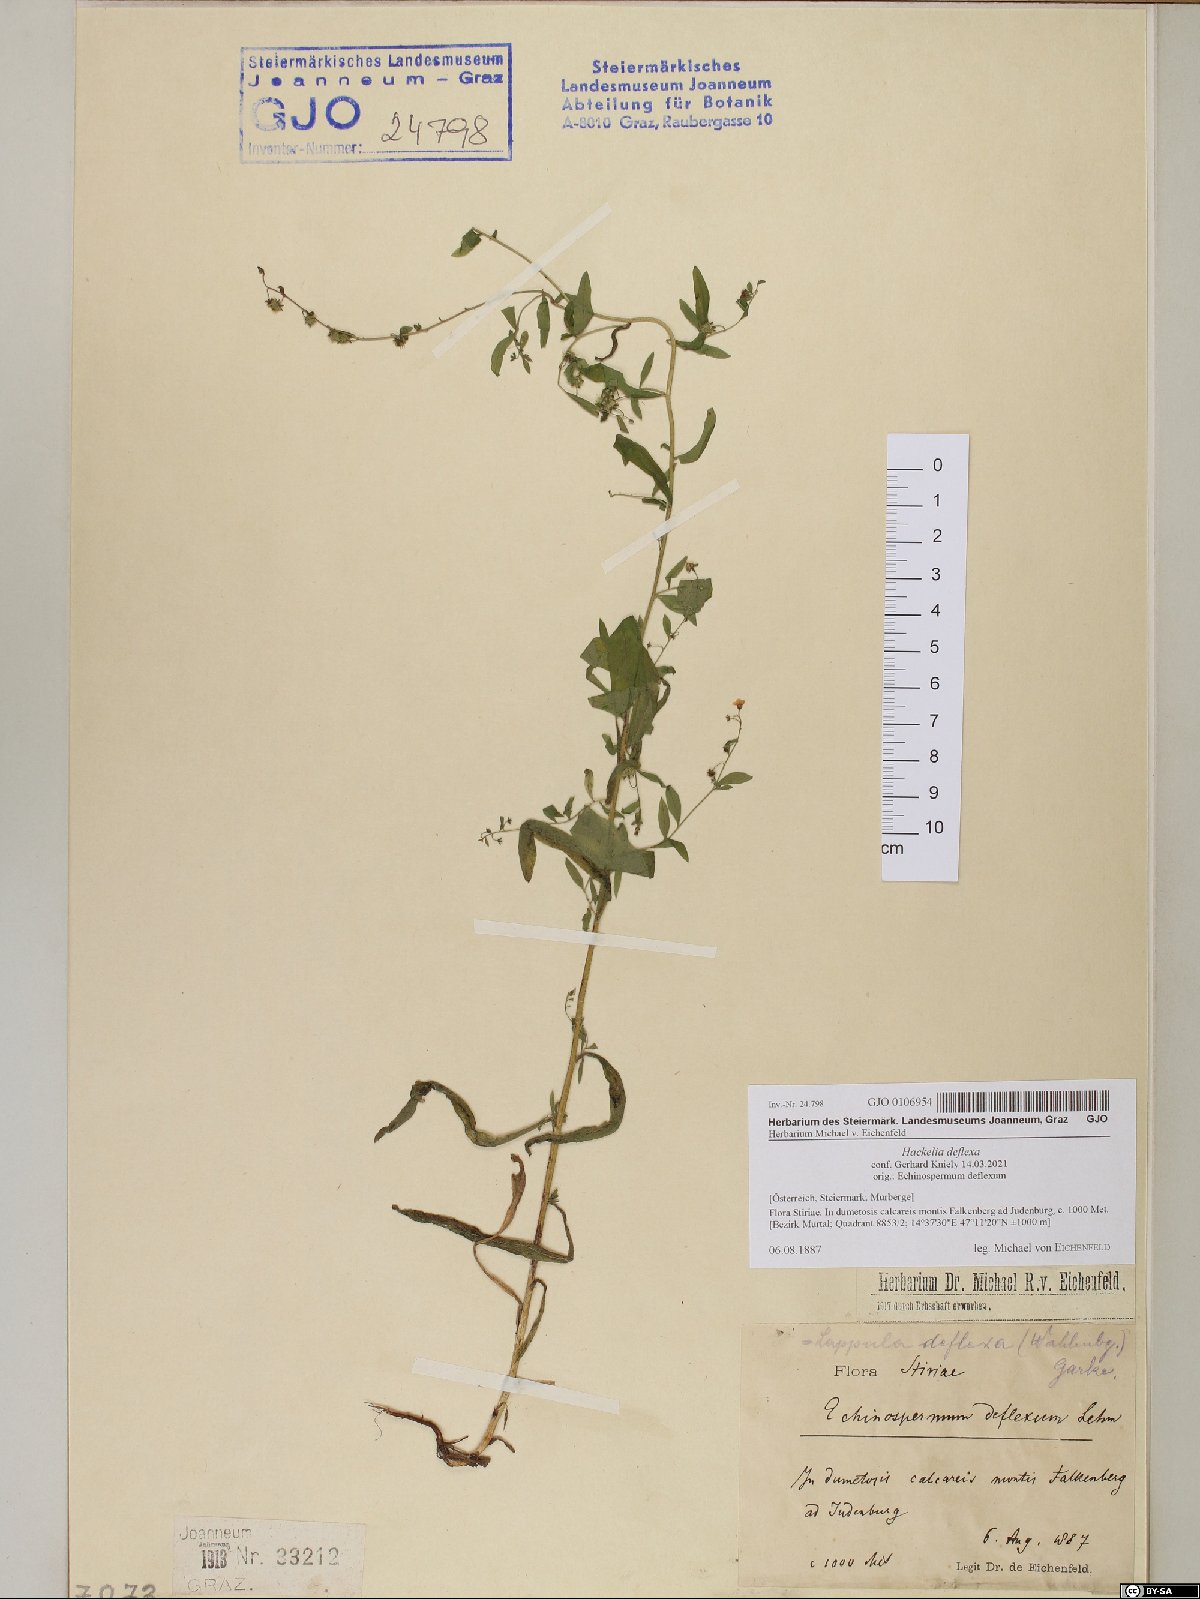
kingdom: Plantae
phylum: Tracheophyta
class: Magnoliopsida
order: Boraginales
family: Boraginaceae
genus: Hackelia
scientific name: Hackelia deflexa
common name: Nodding stickseed
